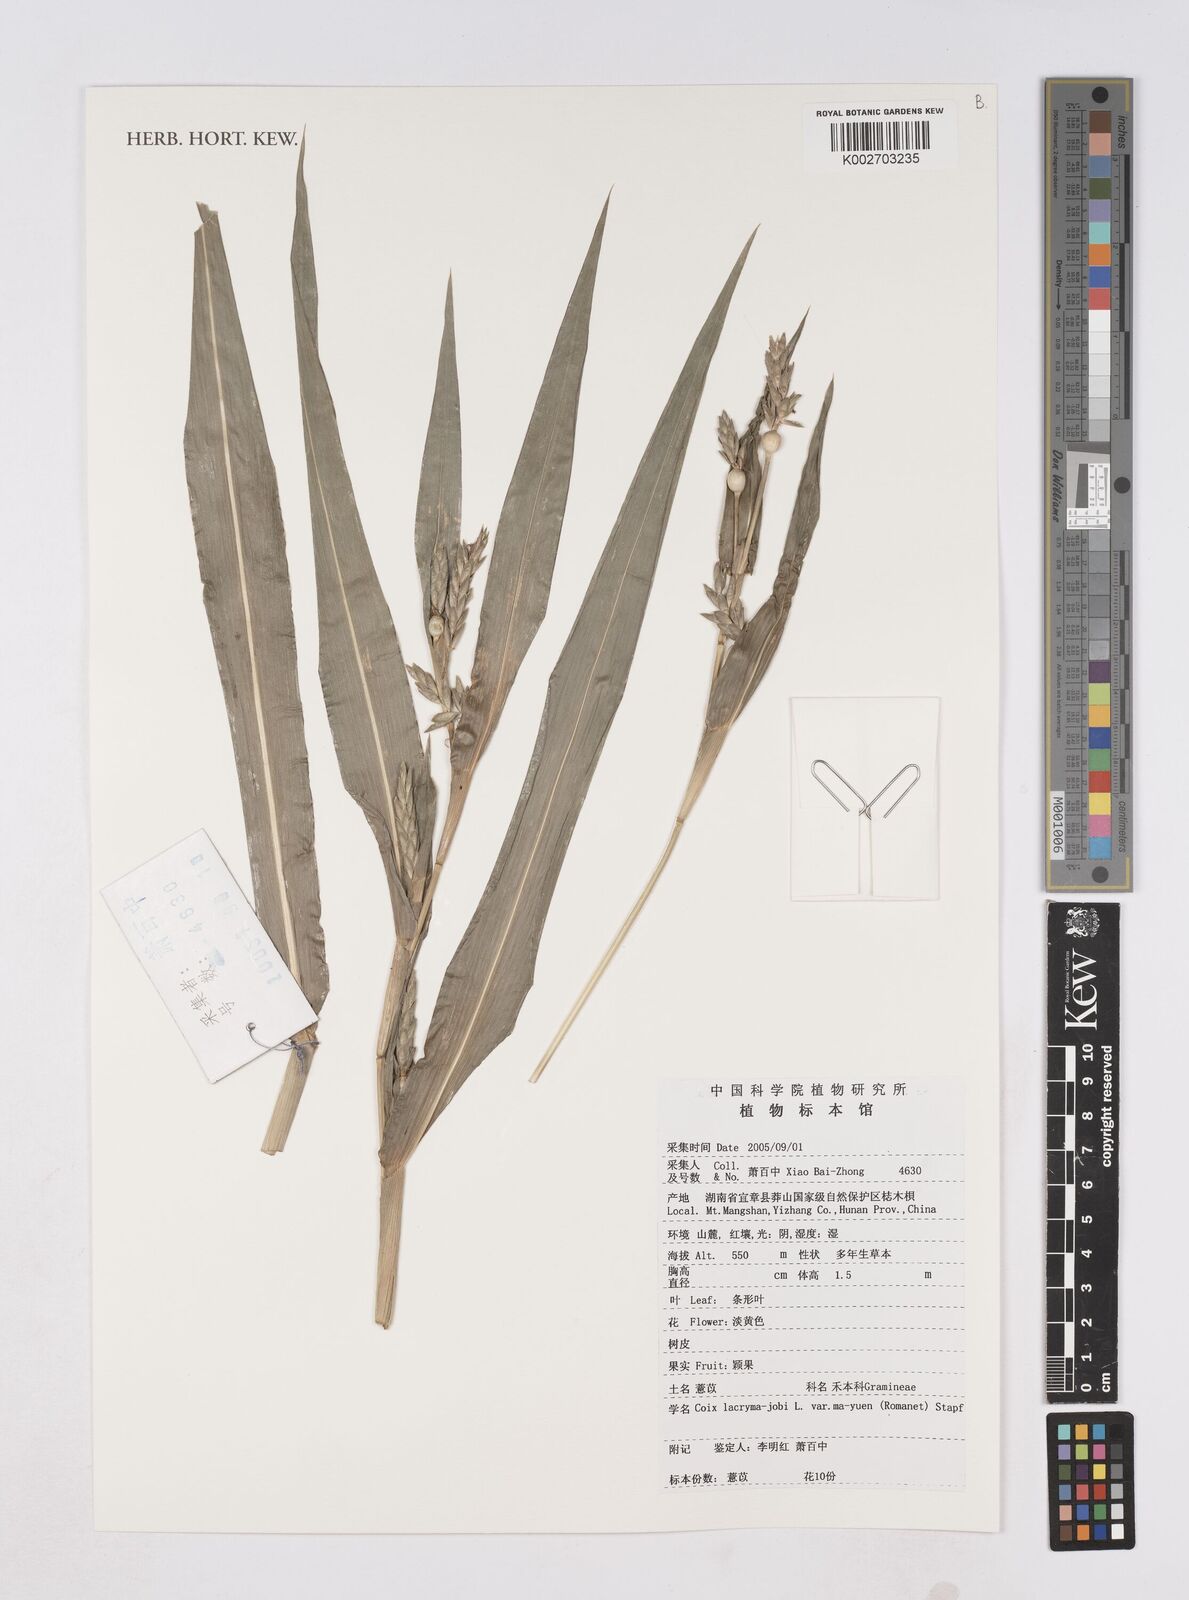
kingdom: Plantae
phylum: Tracheophyta
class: Liliopsida
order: Poales
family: Poaceae
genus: Coix
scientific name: Coix lacryma-jobi
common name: Job's tears
